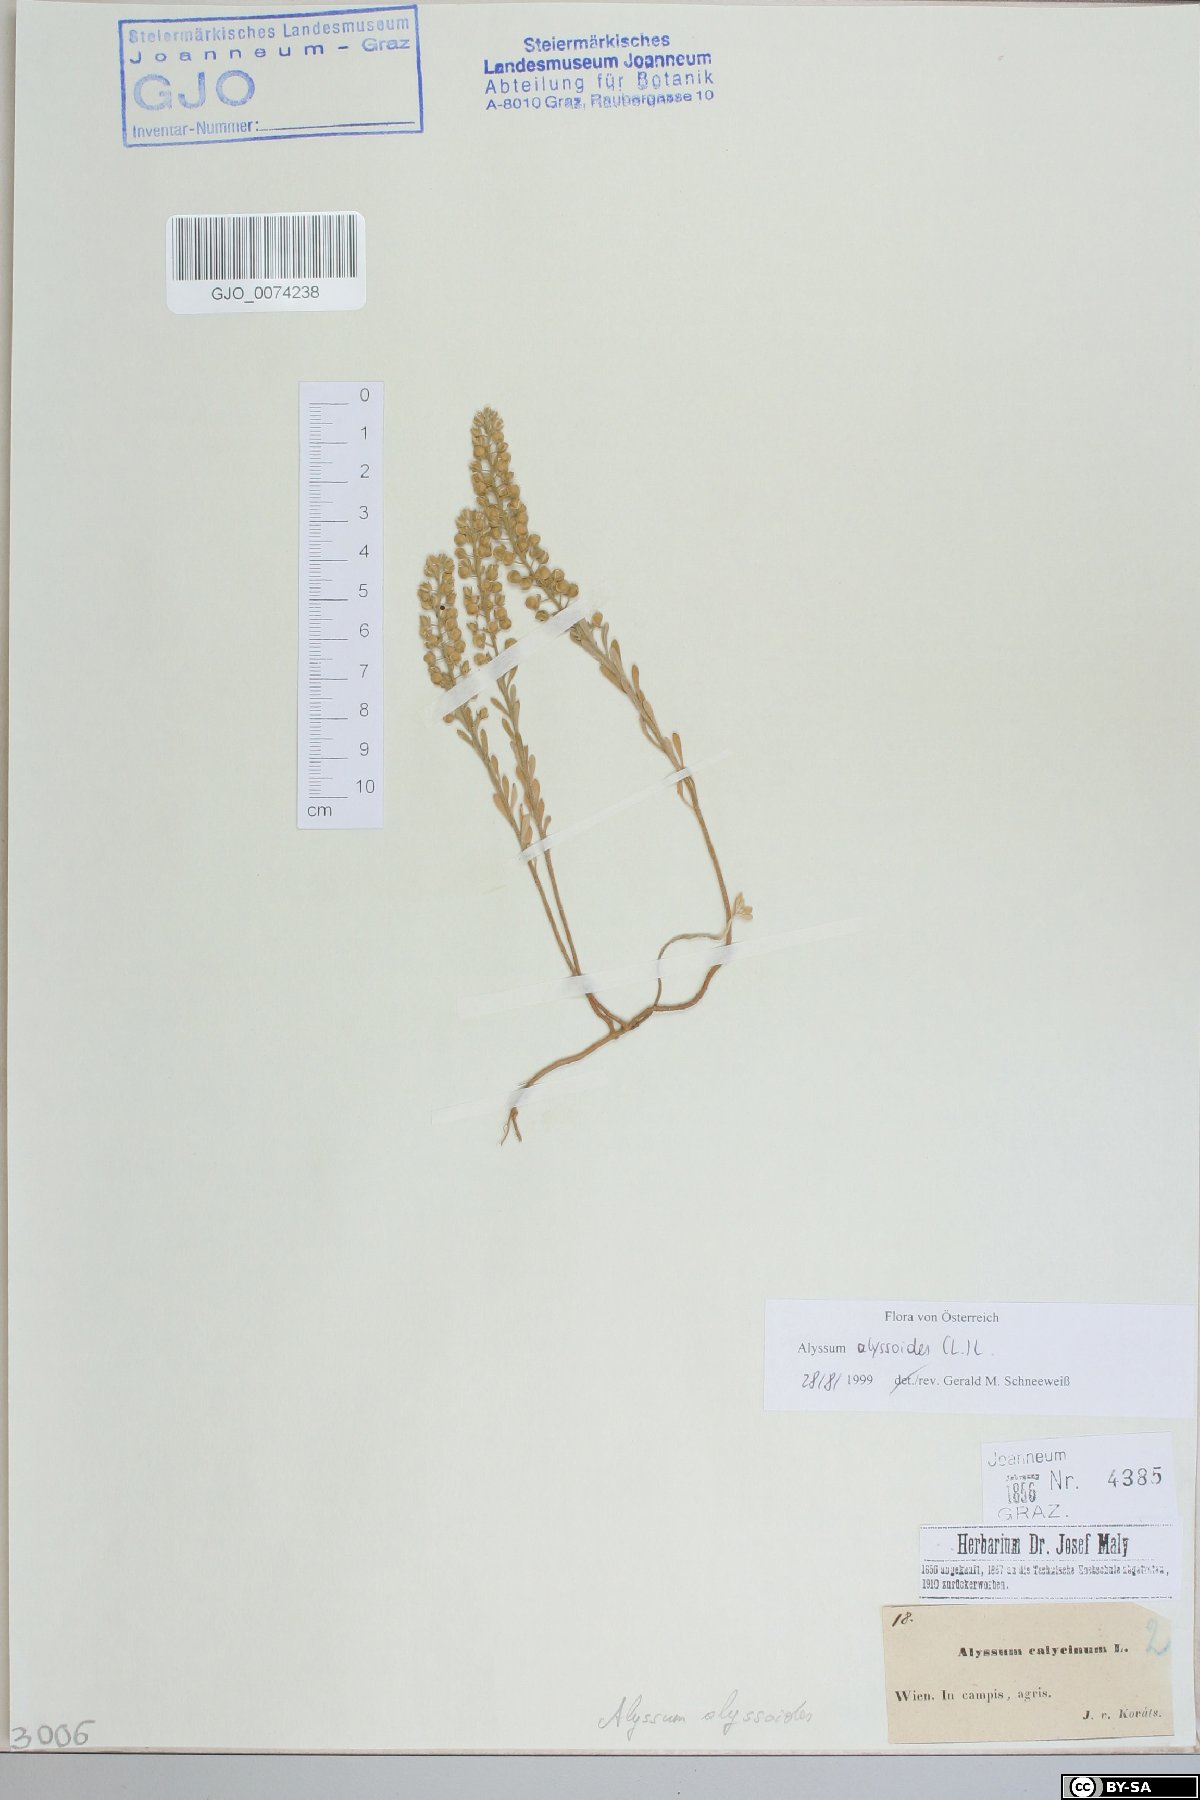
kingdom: Plantae
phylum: Tracheophyta
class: Magnoliopsida
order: Brassicales
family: Brassicaceae
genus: Alyssum
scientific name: Alyssum alyssoides
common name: Small alison
